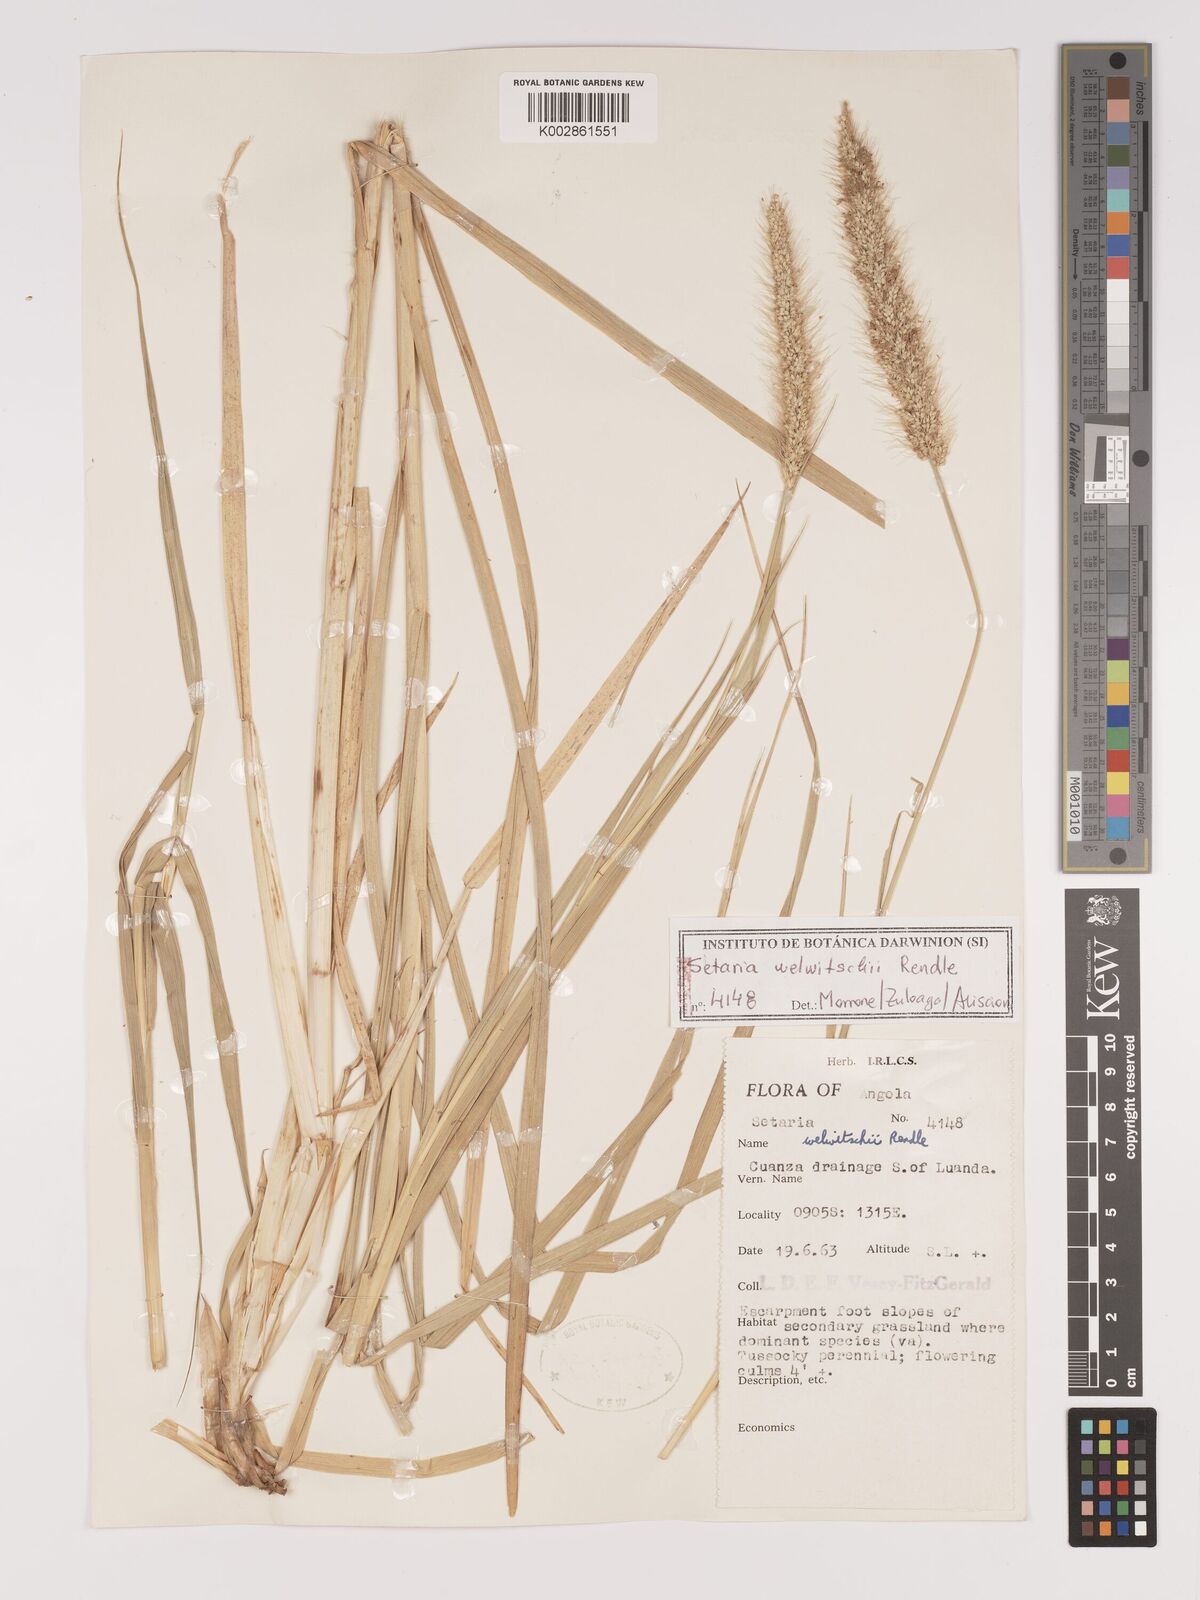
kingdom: Plantae
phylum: Tracheophyta
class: Liliopsida
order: Poales
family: Poaceae
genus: Setaria
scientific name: Setaria welwitschii
